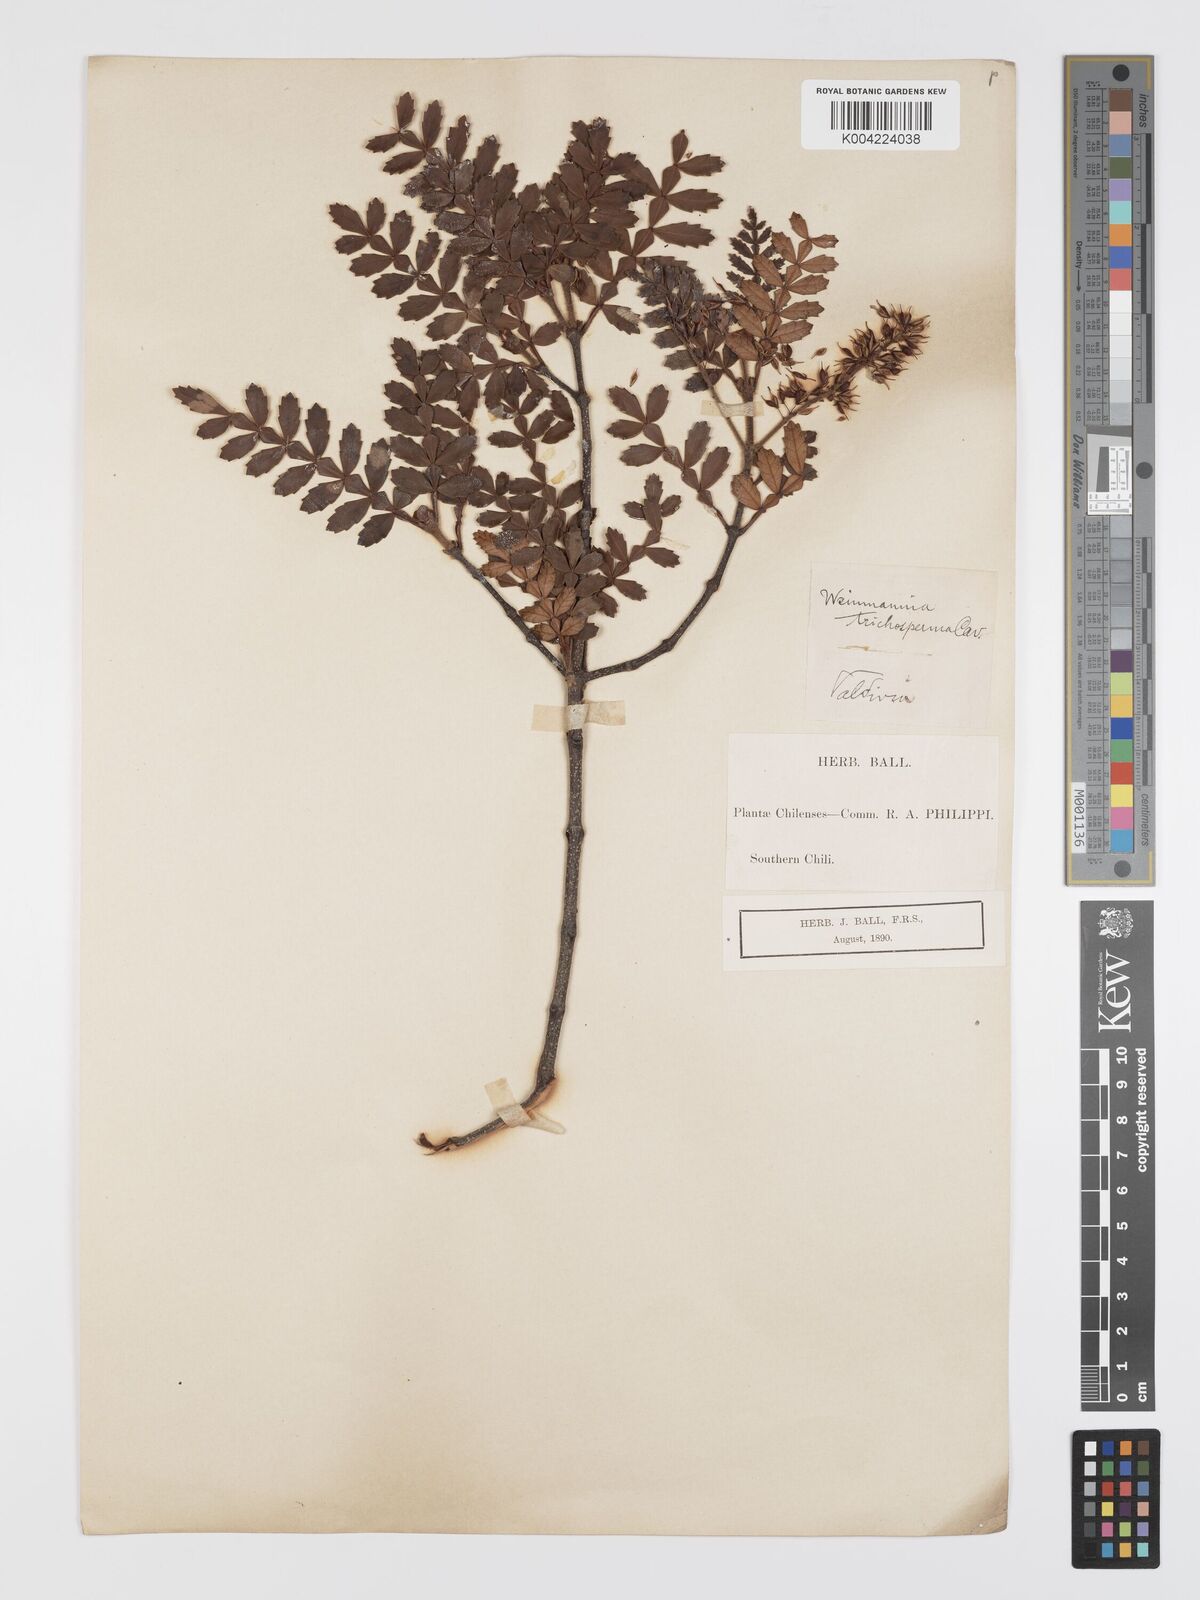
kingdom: Plantae
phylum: Tracheophyta
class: Magnoliopsida
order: Oxalidales
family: Cunoniaceae
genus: Weinmannia
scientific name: Weinmannia trichosperma
